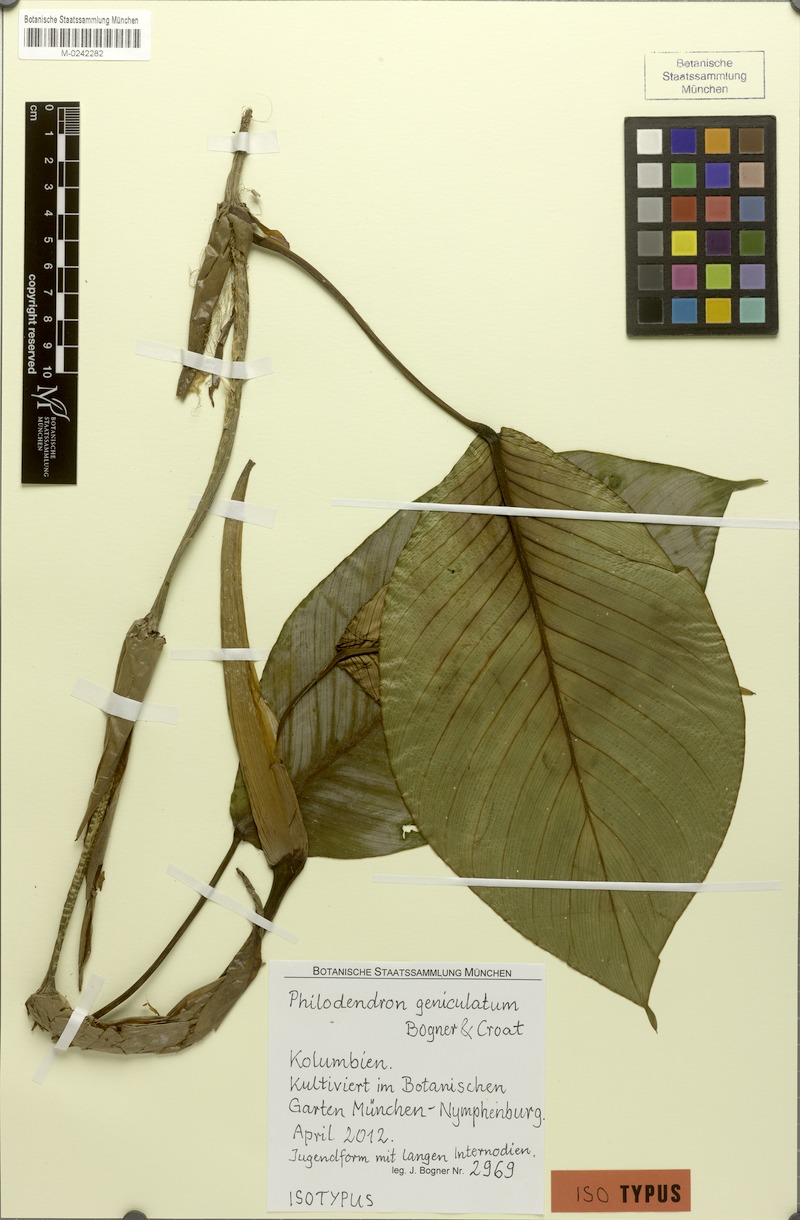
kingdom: Plantae
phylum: Tracheophyta
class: Liliopsida
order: Alismatales
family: Araceae
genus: Philodendron
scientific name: Philodendron geniculatum
